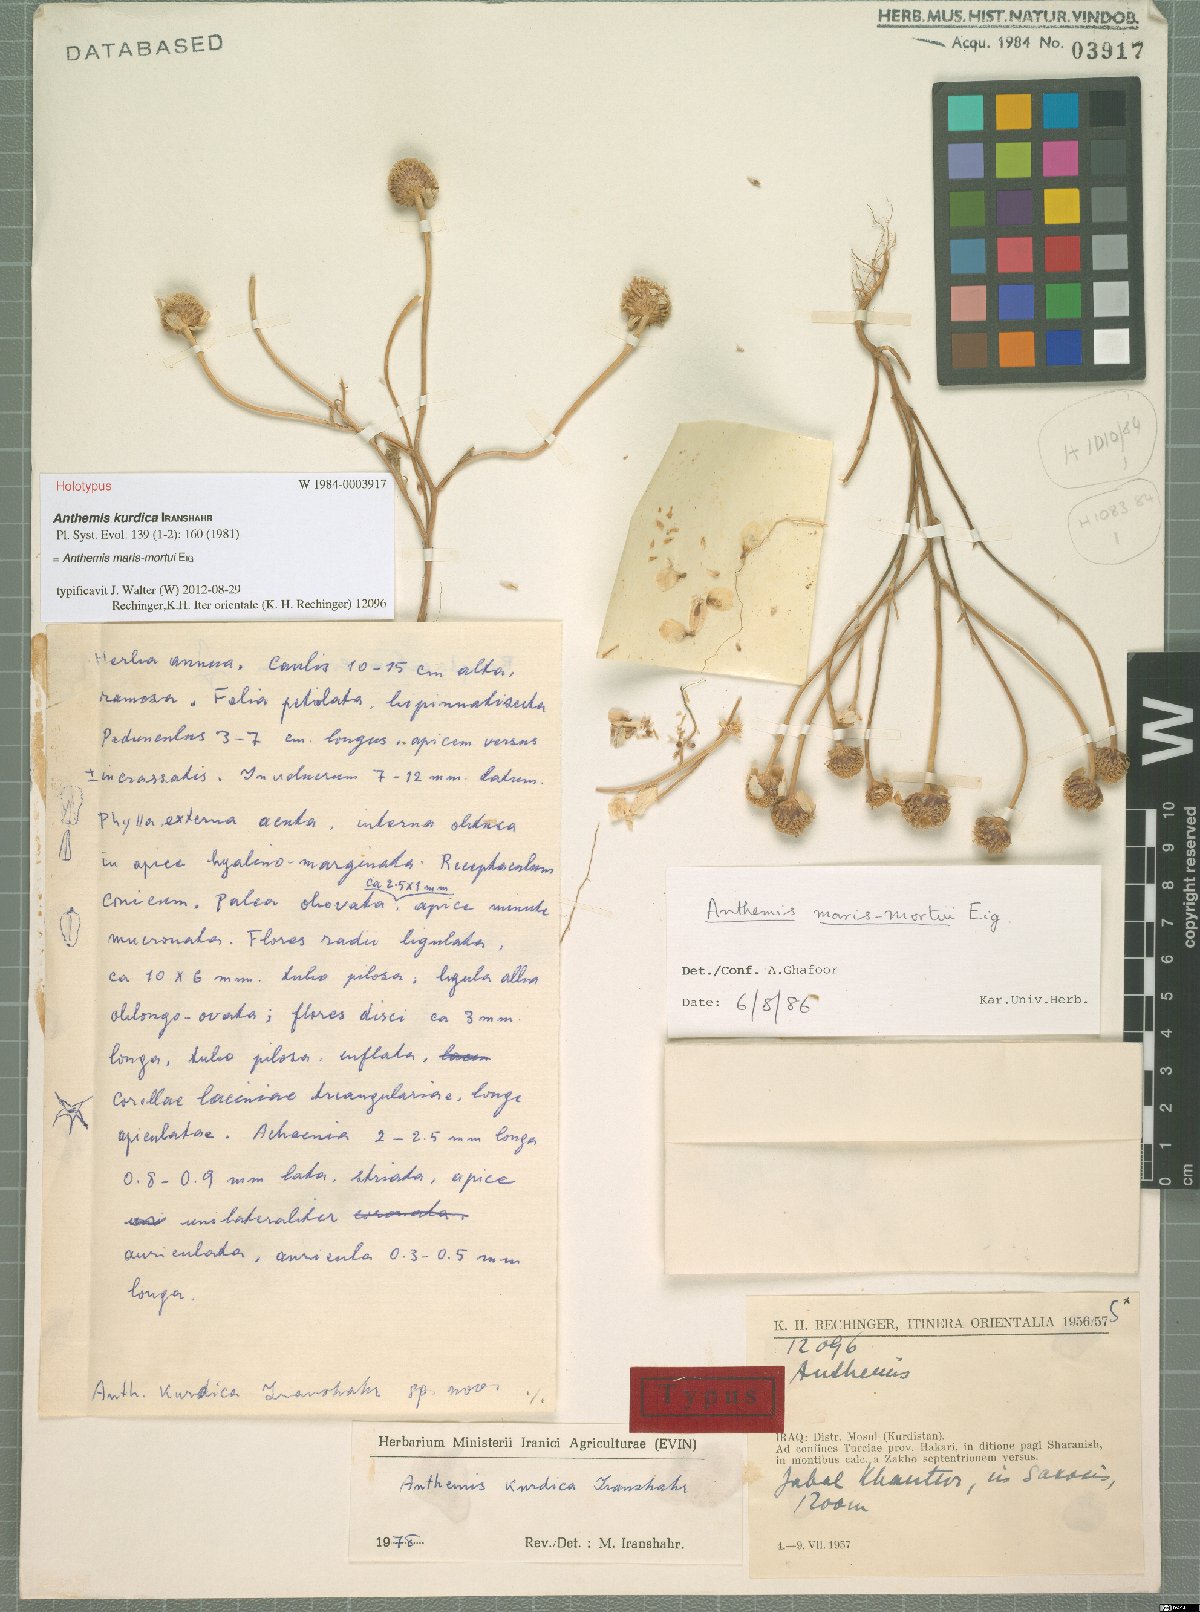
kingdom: Plantae
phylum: Tracheophyta
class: Magnoliopsida
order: Asterales
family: Asteraceae
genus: Anthemis
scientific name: Anthemis maris-mortui
